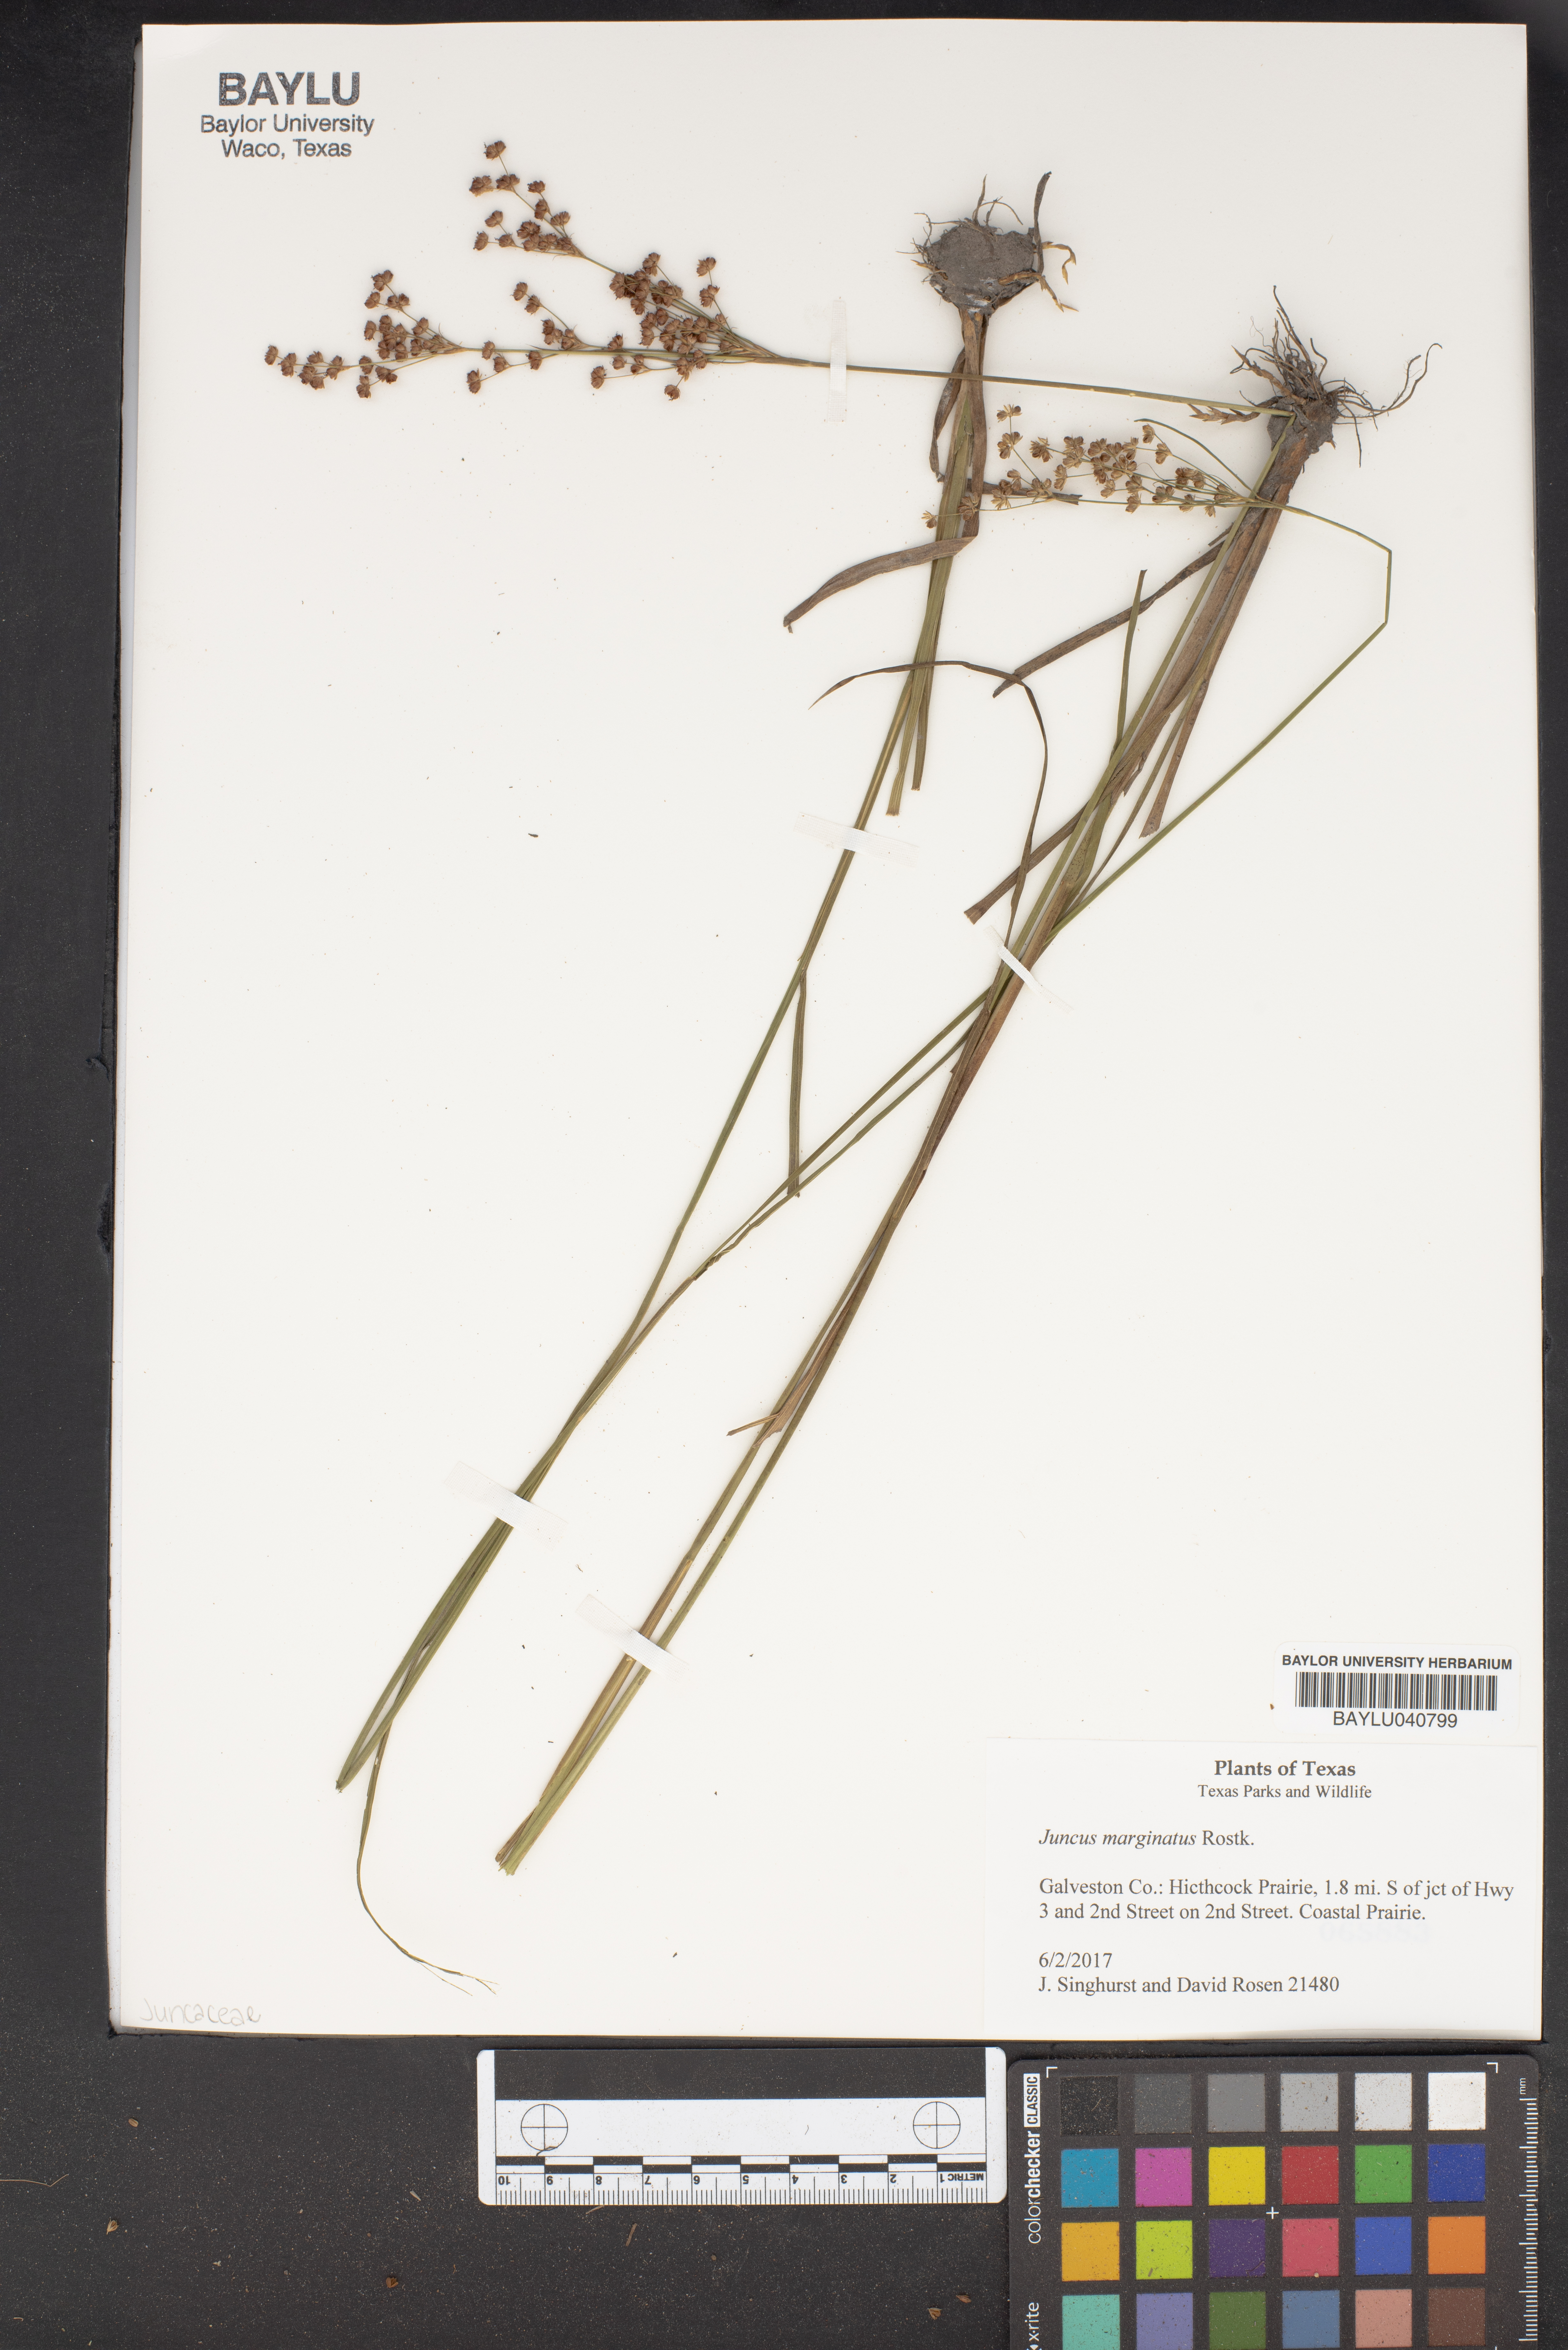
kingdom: Plantae
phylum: Tracheophyta
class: Liliopsida
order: Poales
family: Juncaceae
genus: Juncus
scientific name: Juncus marginatus
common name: Grass-leaf rush
